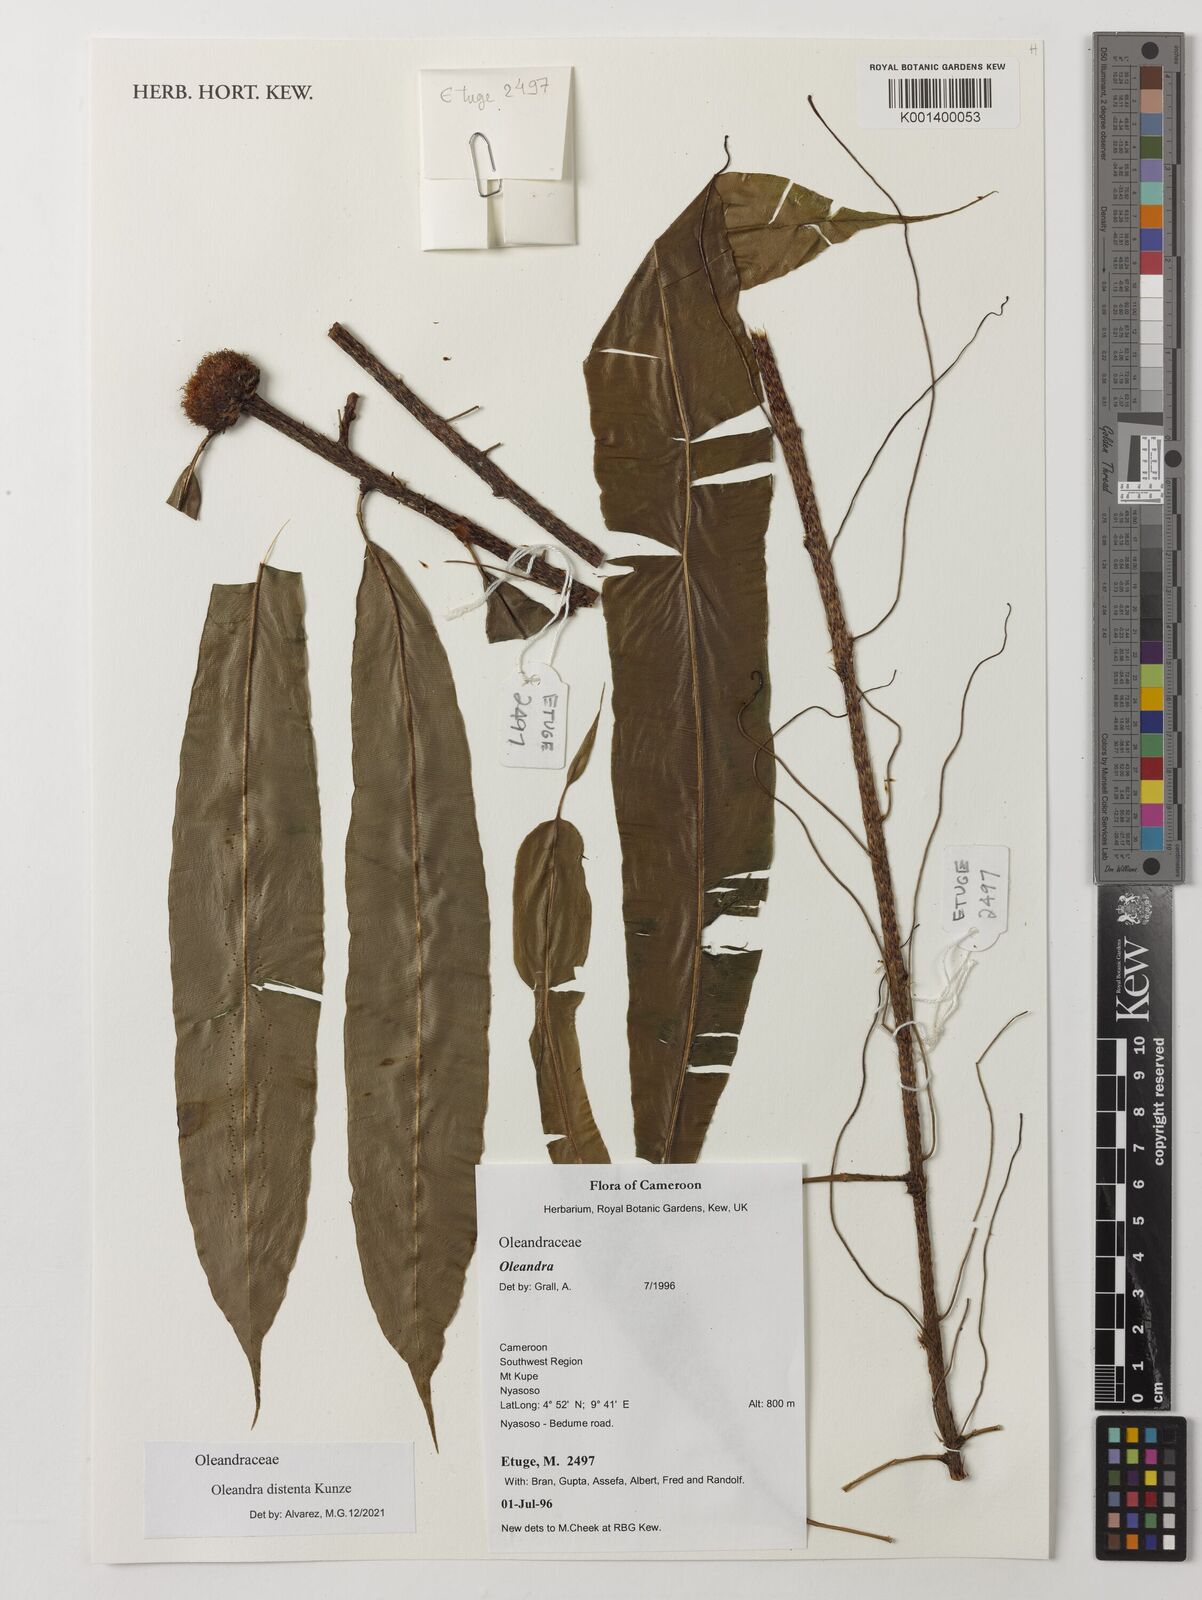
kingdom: Plantae
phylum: Tracheophyta
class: Polypodiopsida
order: Polypodiales
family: Oleandraceae
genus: Oleandra
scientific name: Oleandra distenta
